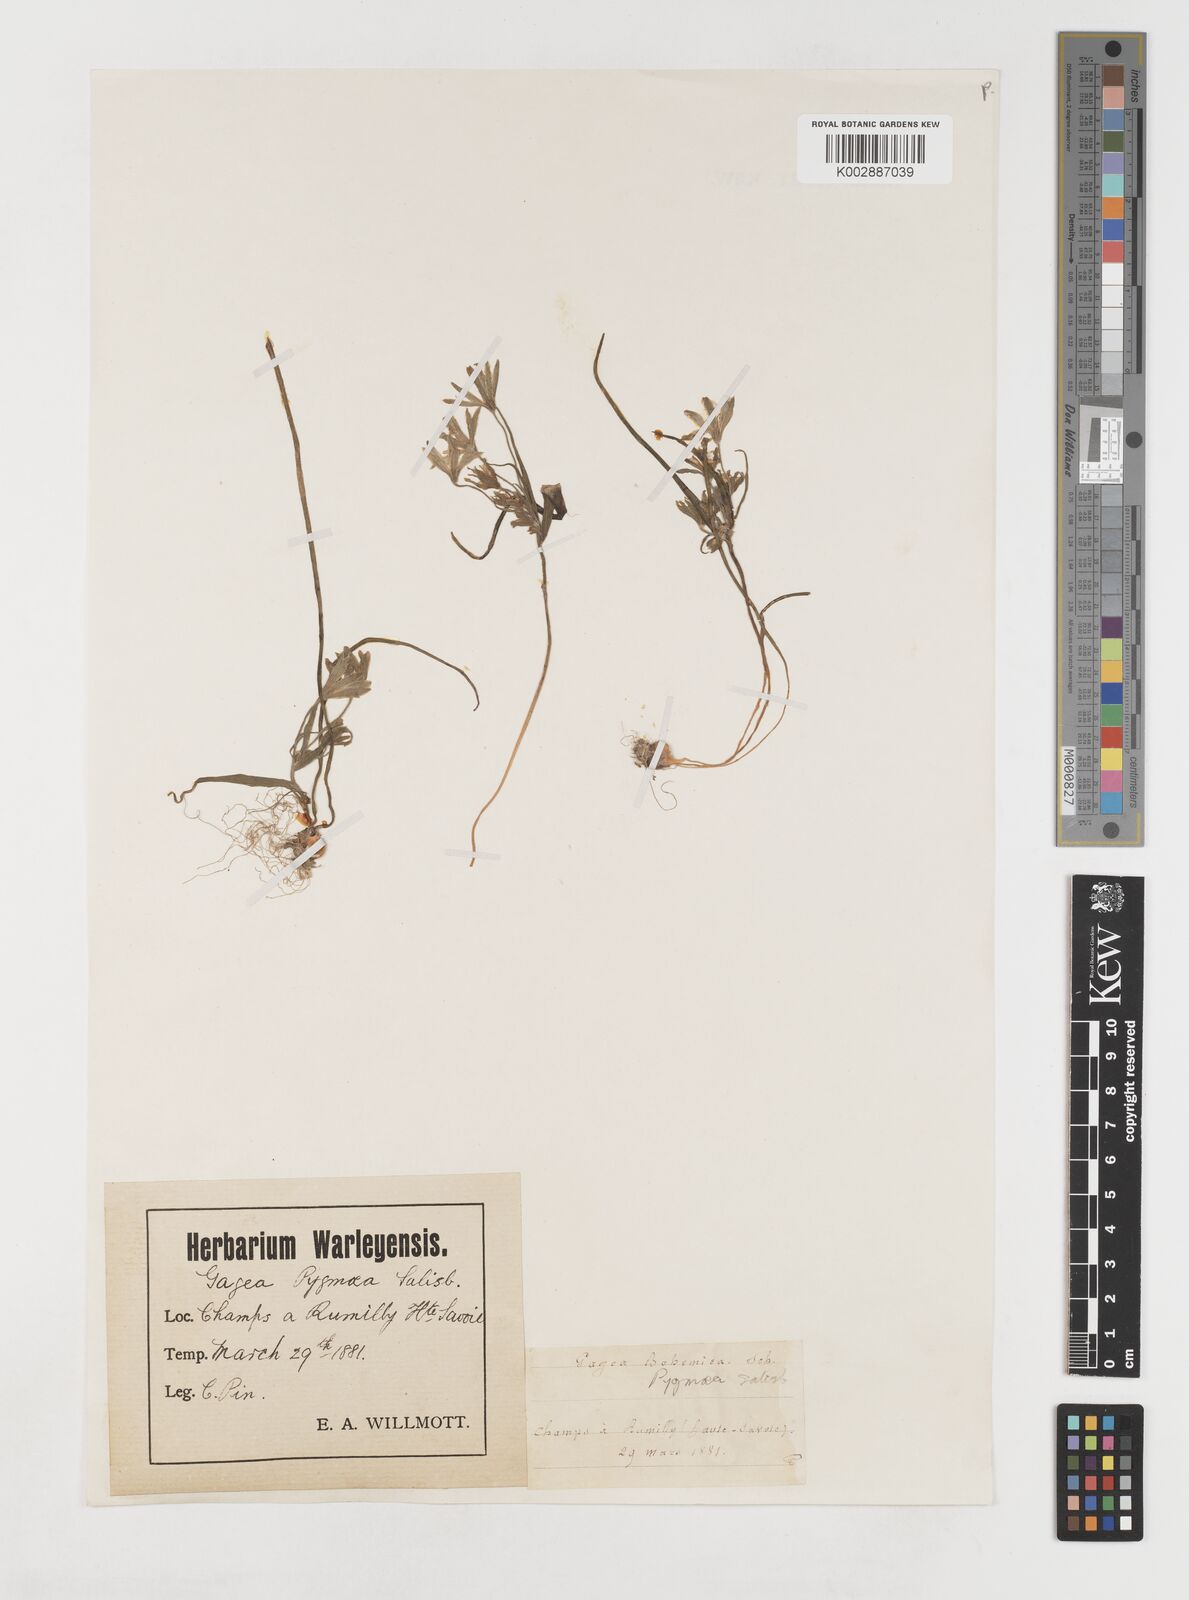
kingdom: Plantae
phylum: Tracheophyta
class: Liliopsida
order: Liliales
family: Liliaceae
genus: Gagea
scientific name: Gagea bohemica
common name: Early star-of-bethlehem
